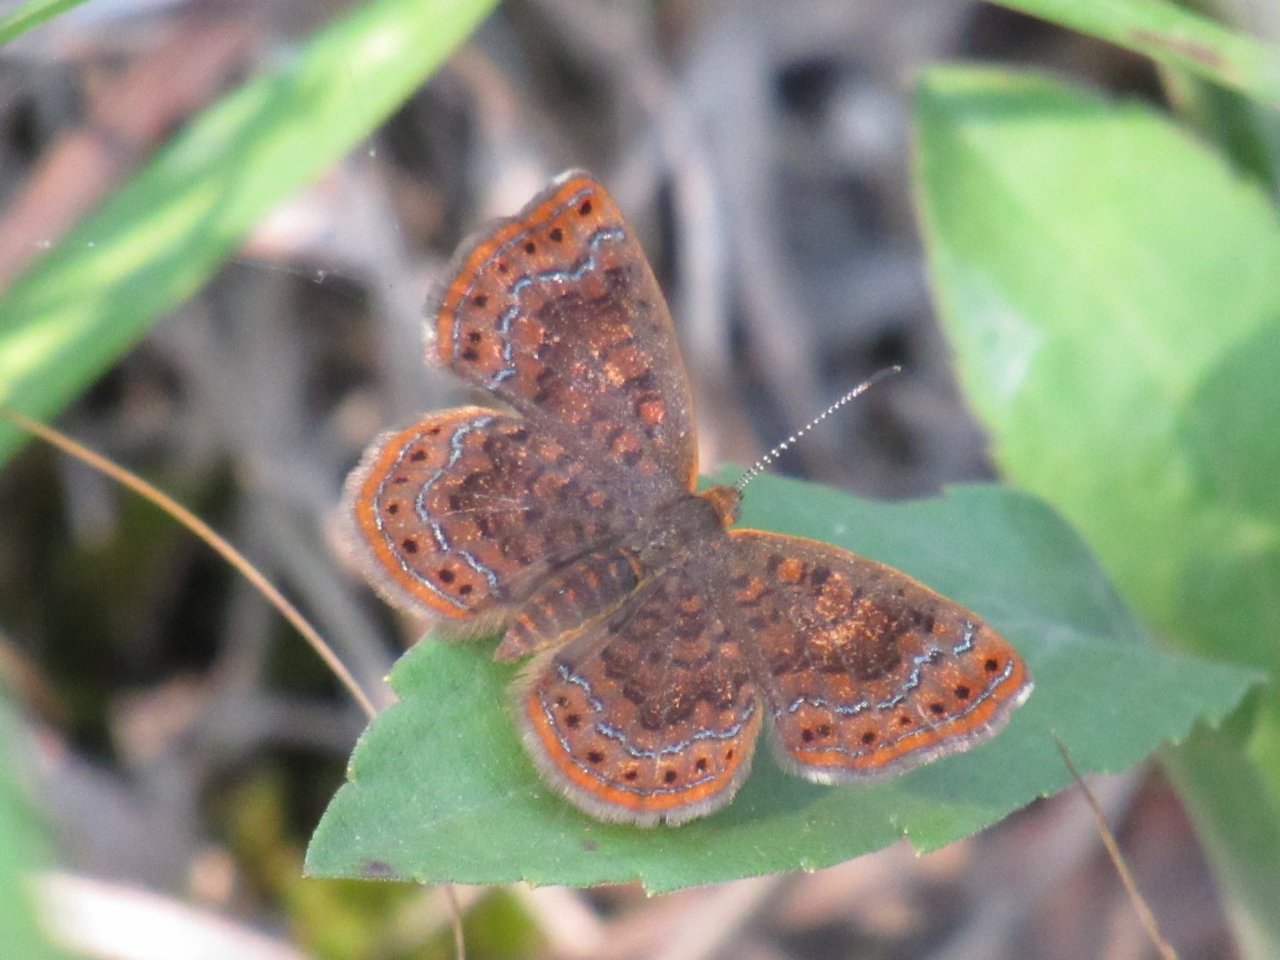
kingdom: Animalia
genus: Calephelis
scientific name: Calephelis borealis
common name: Northern Metalmark
